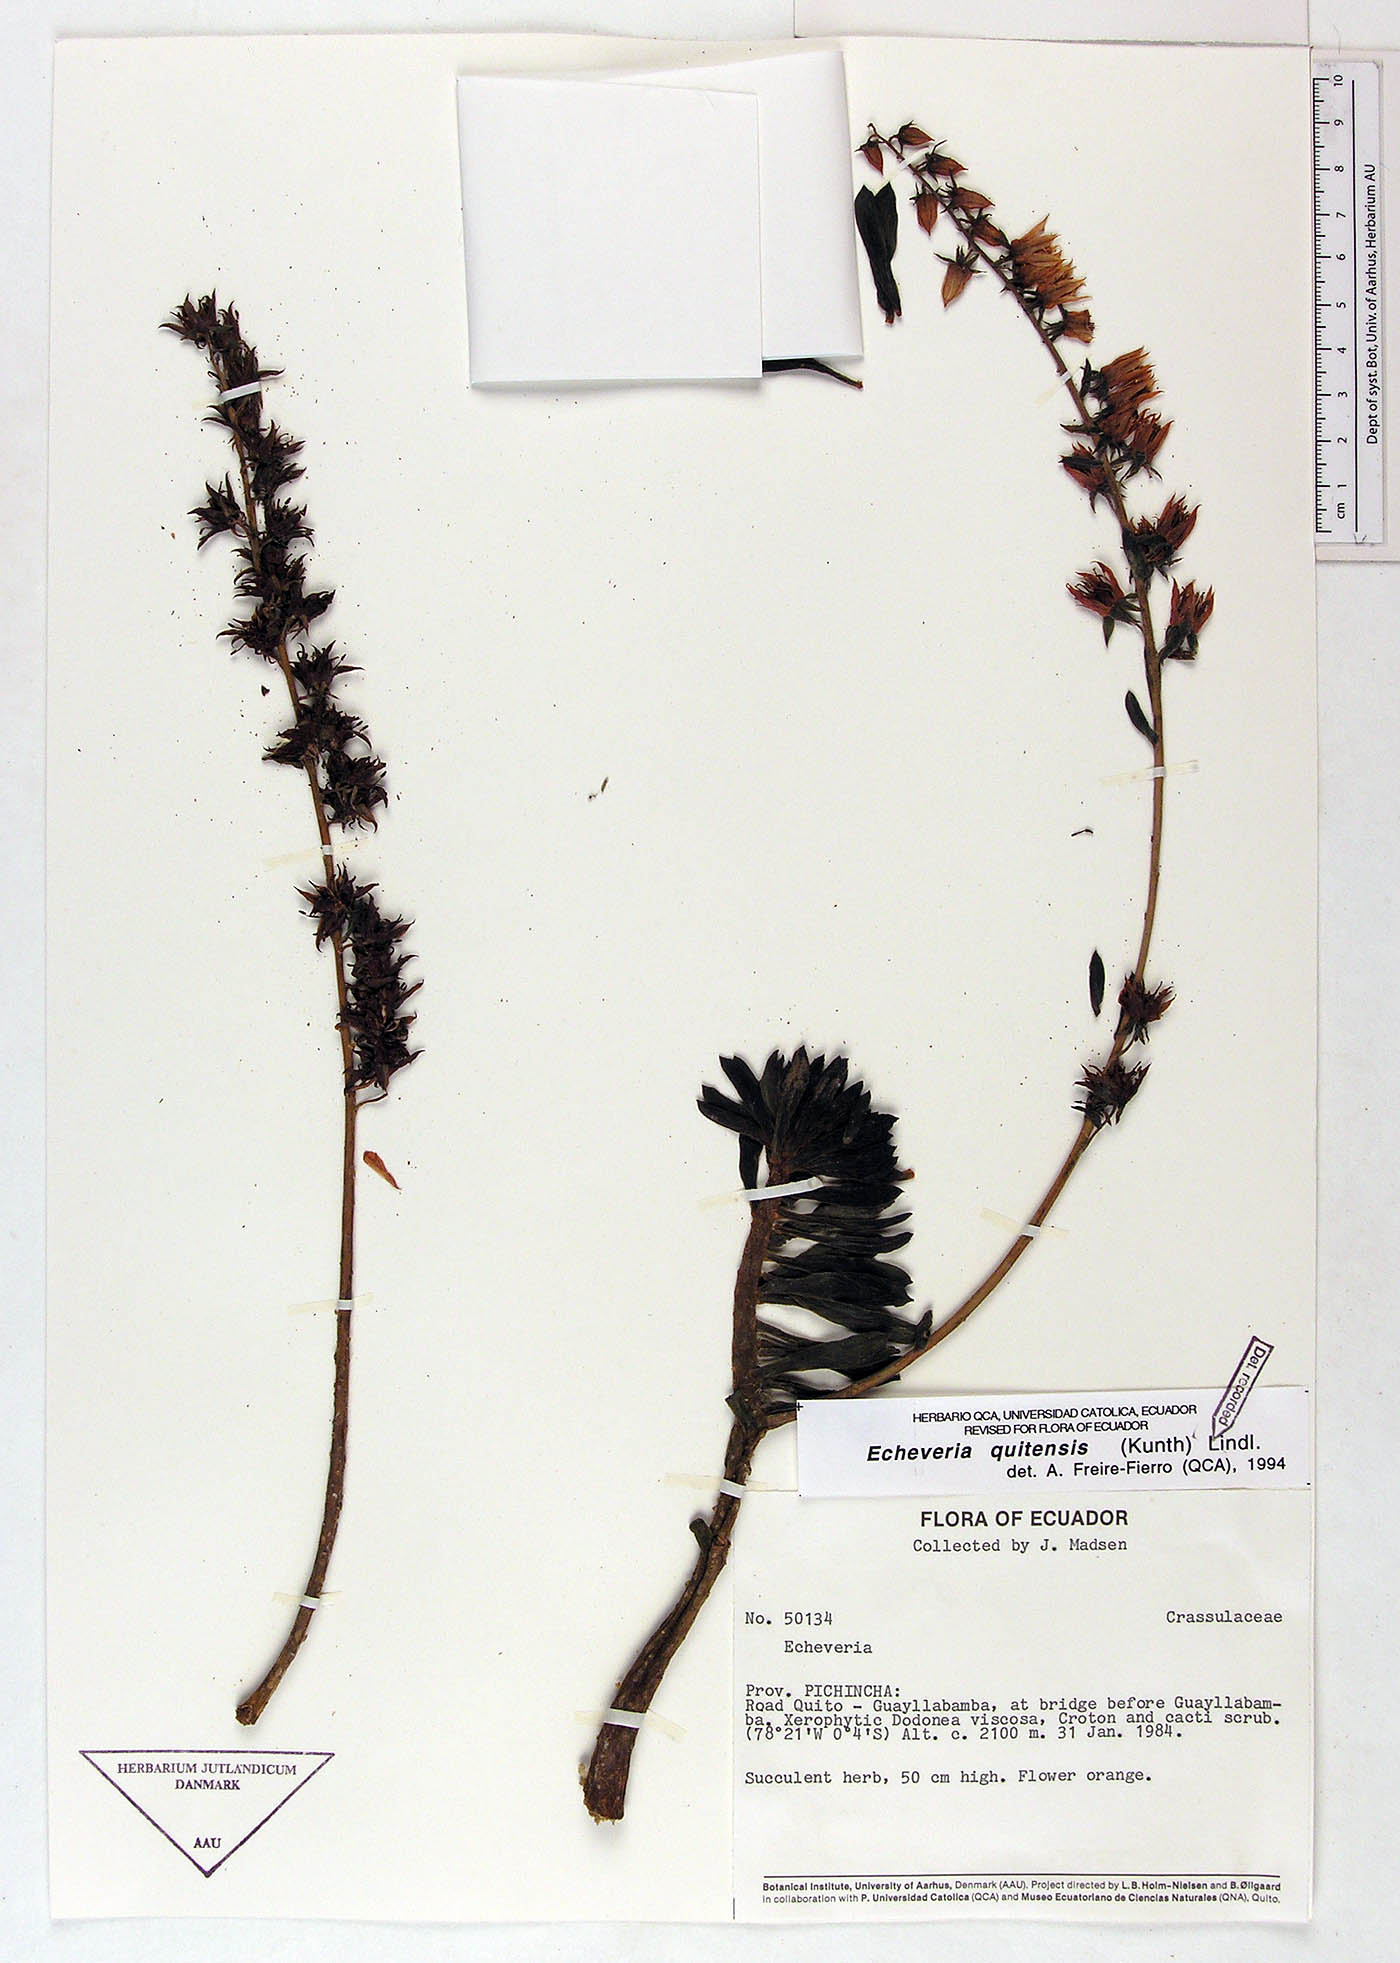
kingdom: Plantae
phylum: Tracheophyta
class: Magnoliopsida
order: Saxifragales
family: Crassulaceae
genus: Echeveria
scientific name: Echeveria quitensis
